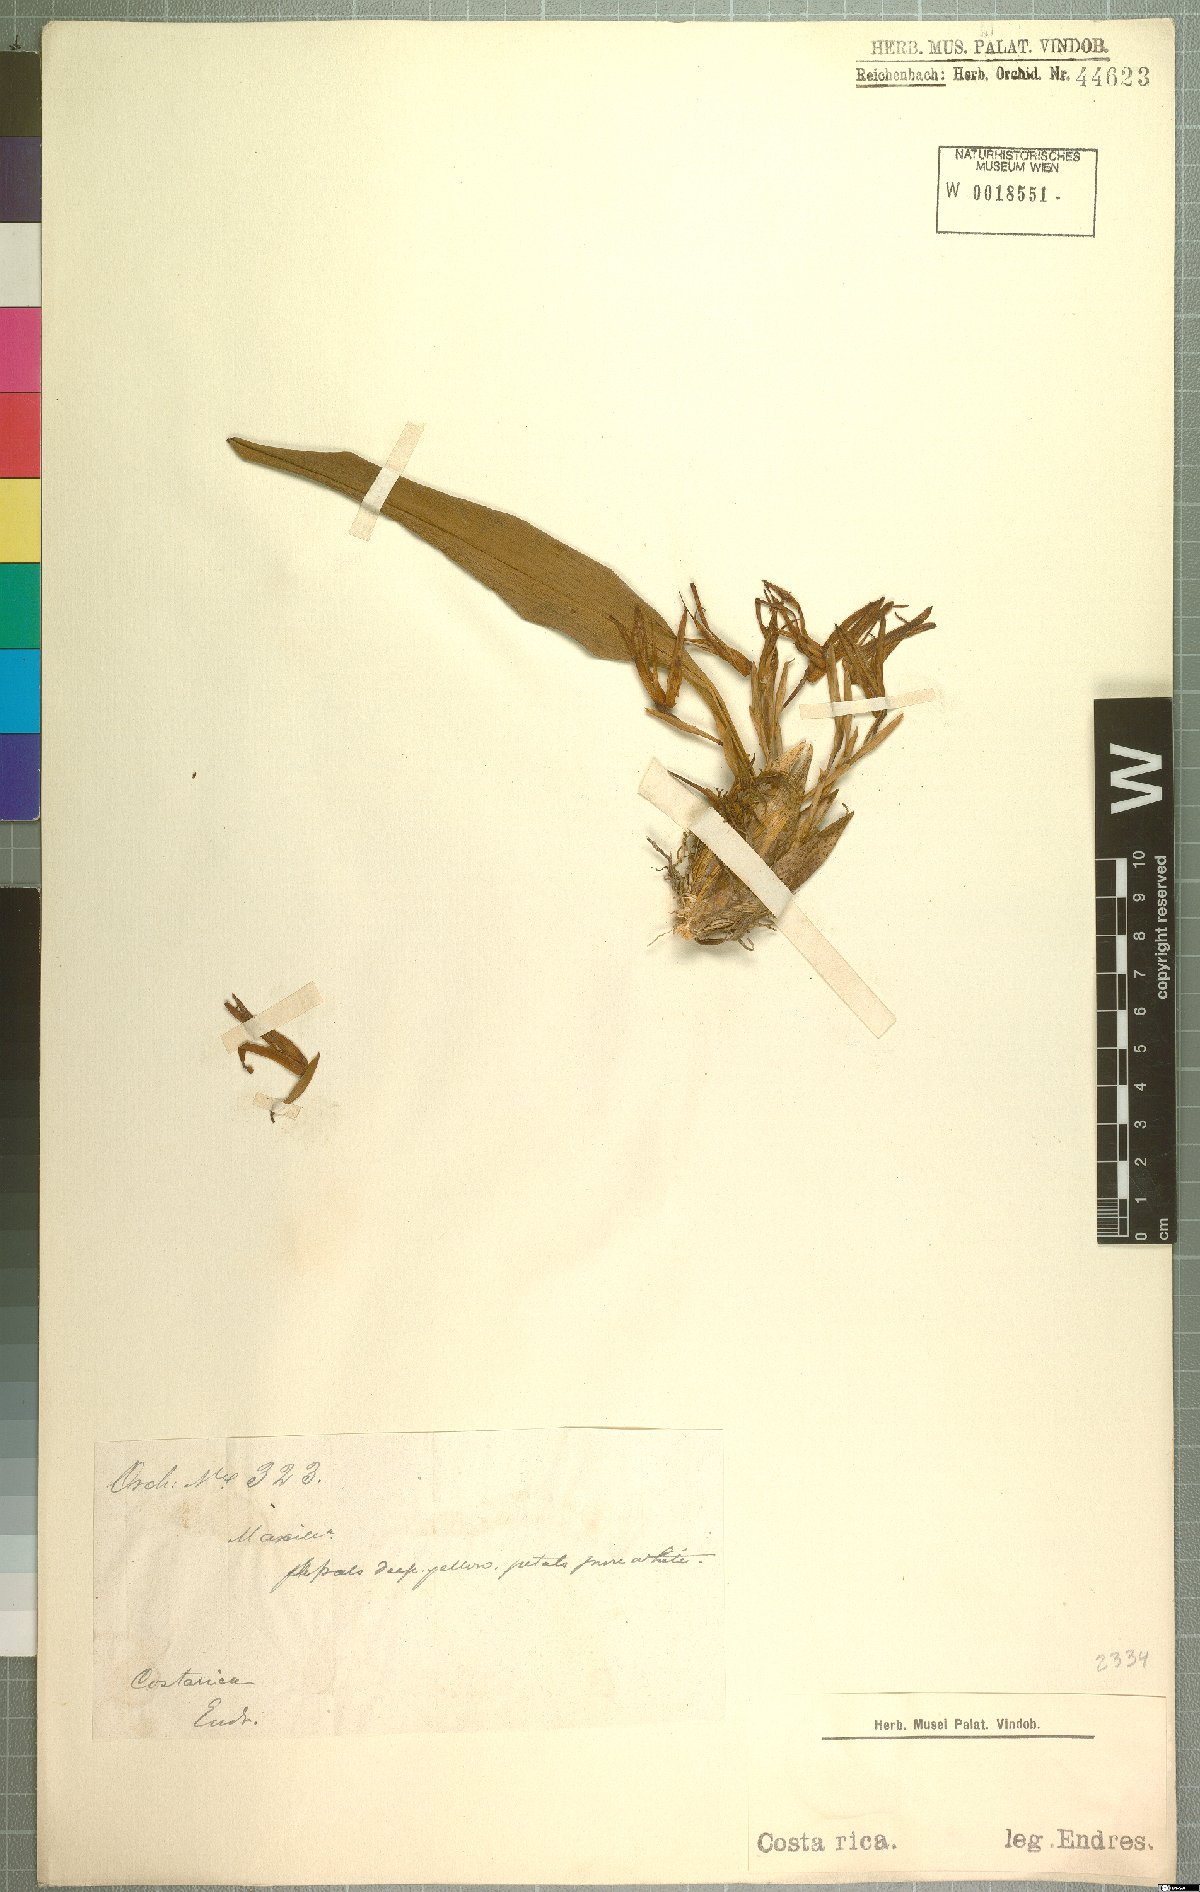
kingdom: Plantae
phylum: Tracheophyta
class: Liliopsida
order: Asparagales
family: Orchidaceae
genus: Maxillaria
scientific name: Maxillaria
